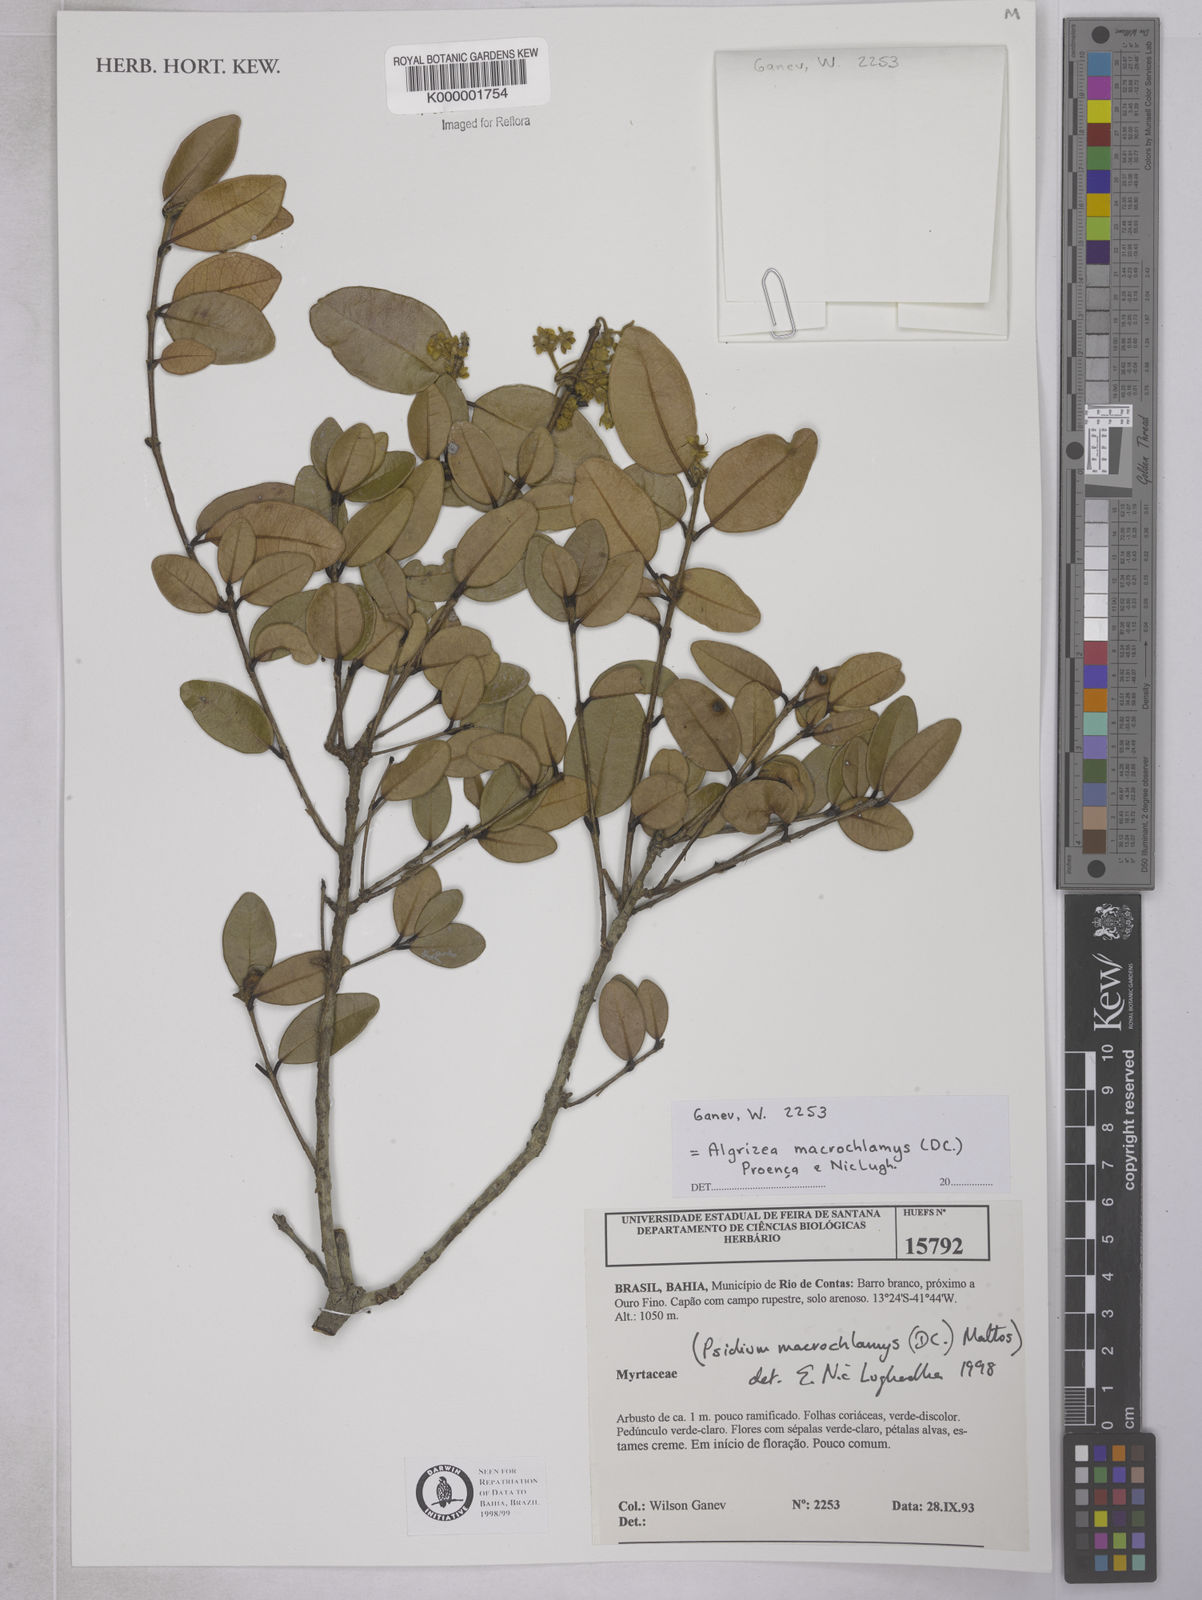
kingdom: Plantae
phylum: Tracheophyta
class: Magnoliopsida
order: Myrtales
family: Myrtaceae
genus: Algrizea
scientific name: Algrizea macrochlamys
